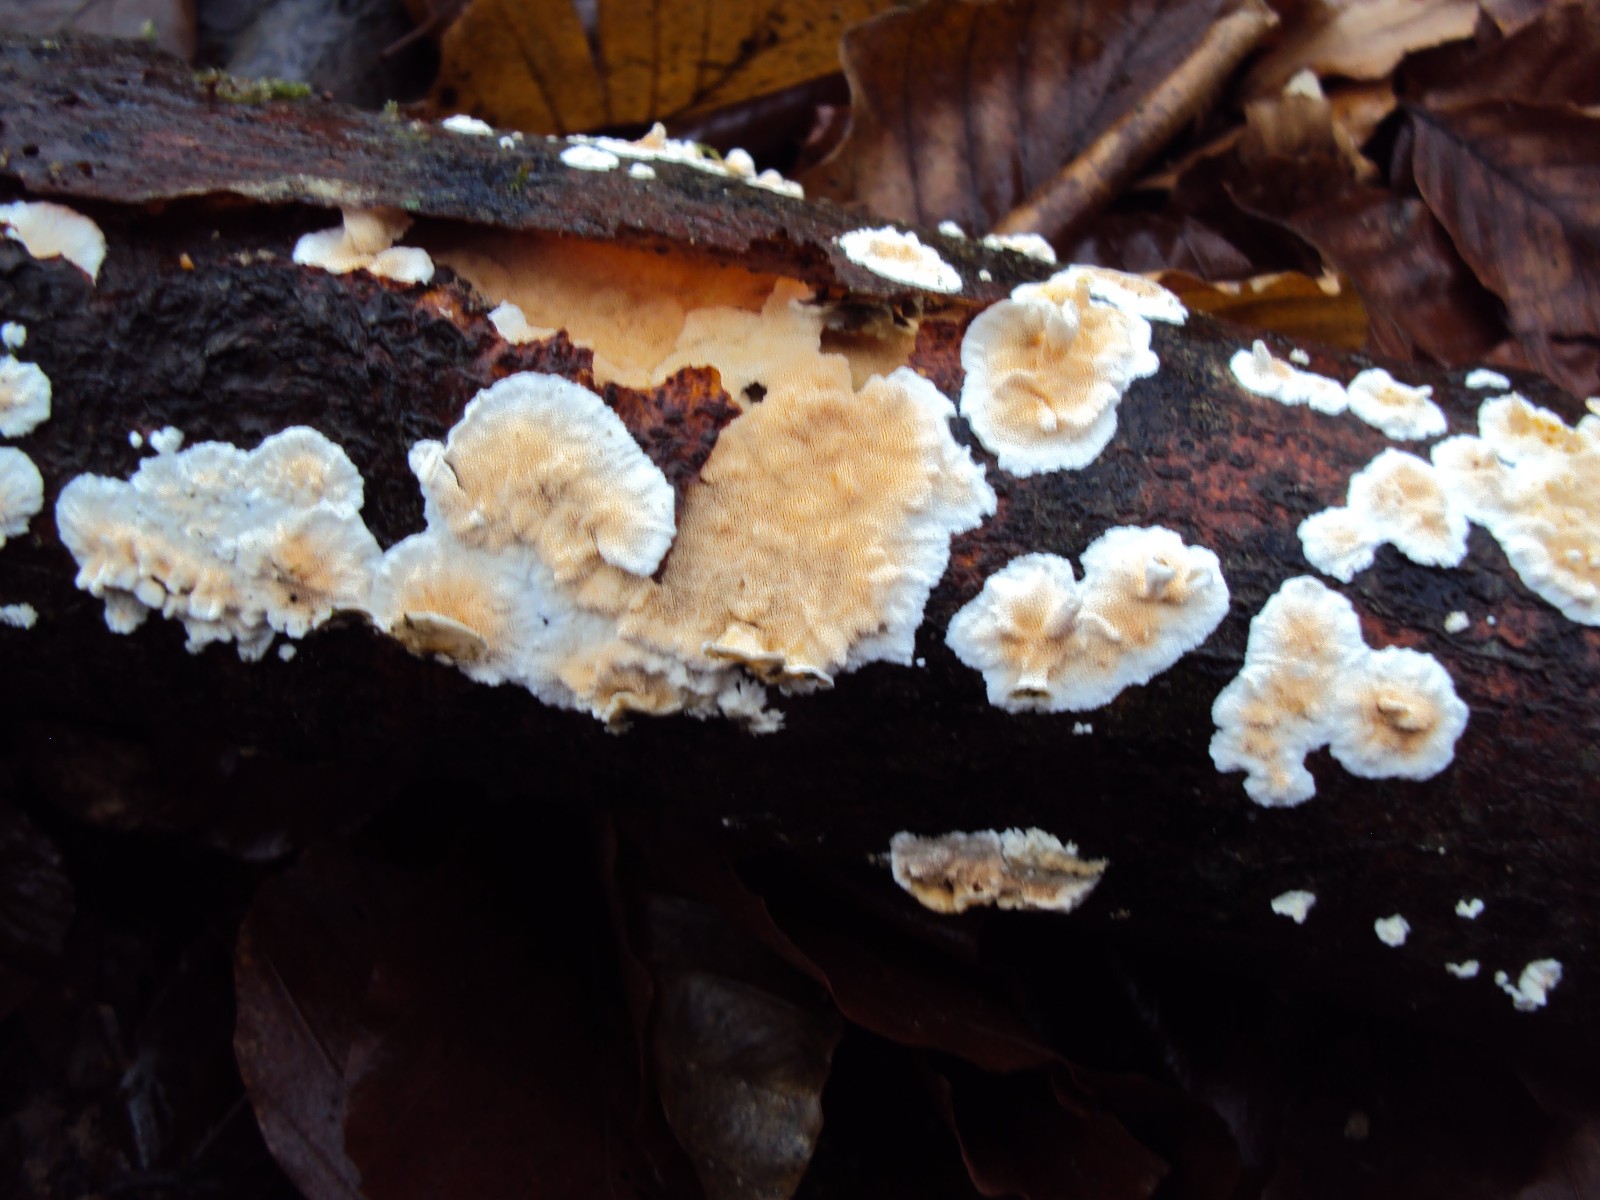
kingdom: Fungi
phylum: Basidiomycota
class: Agaricomycetes
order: Polyporales
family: Steccherinaceae
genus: Steccherinum
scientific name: Steccherinum ochraceum
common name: almindelig skønpig
